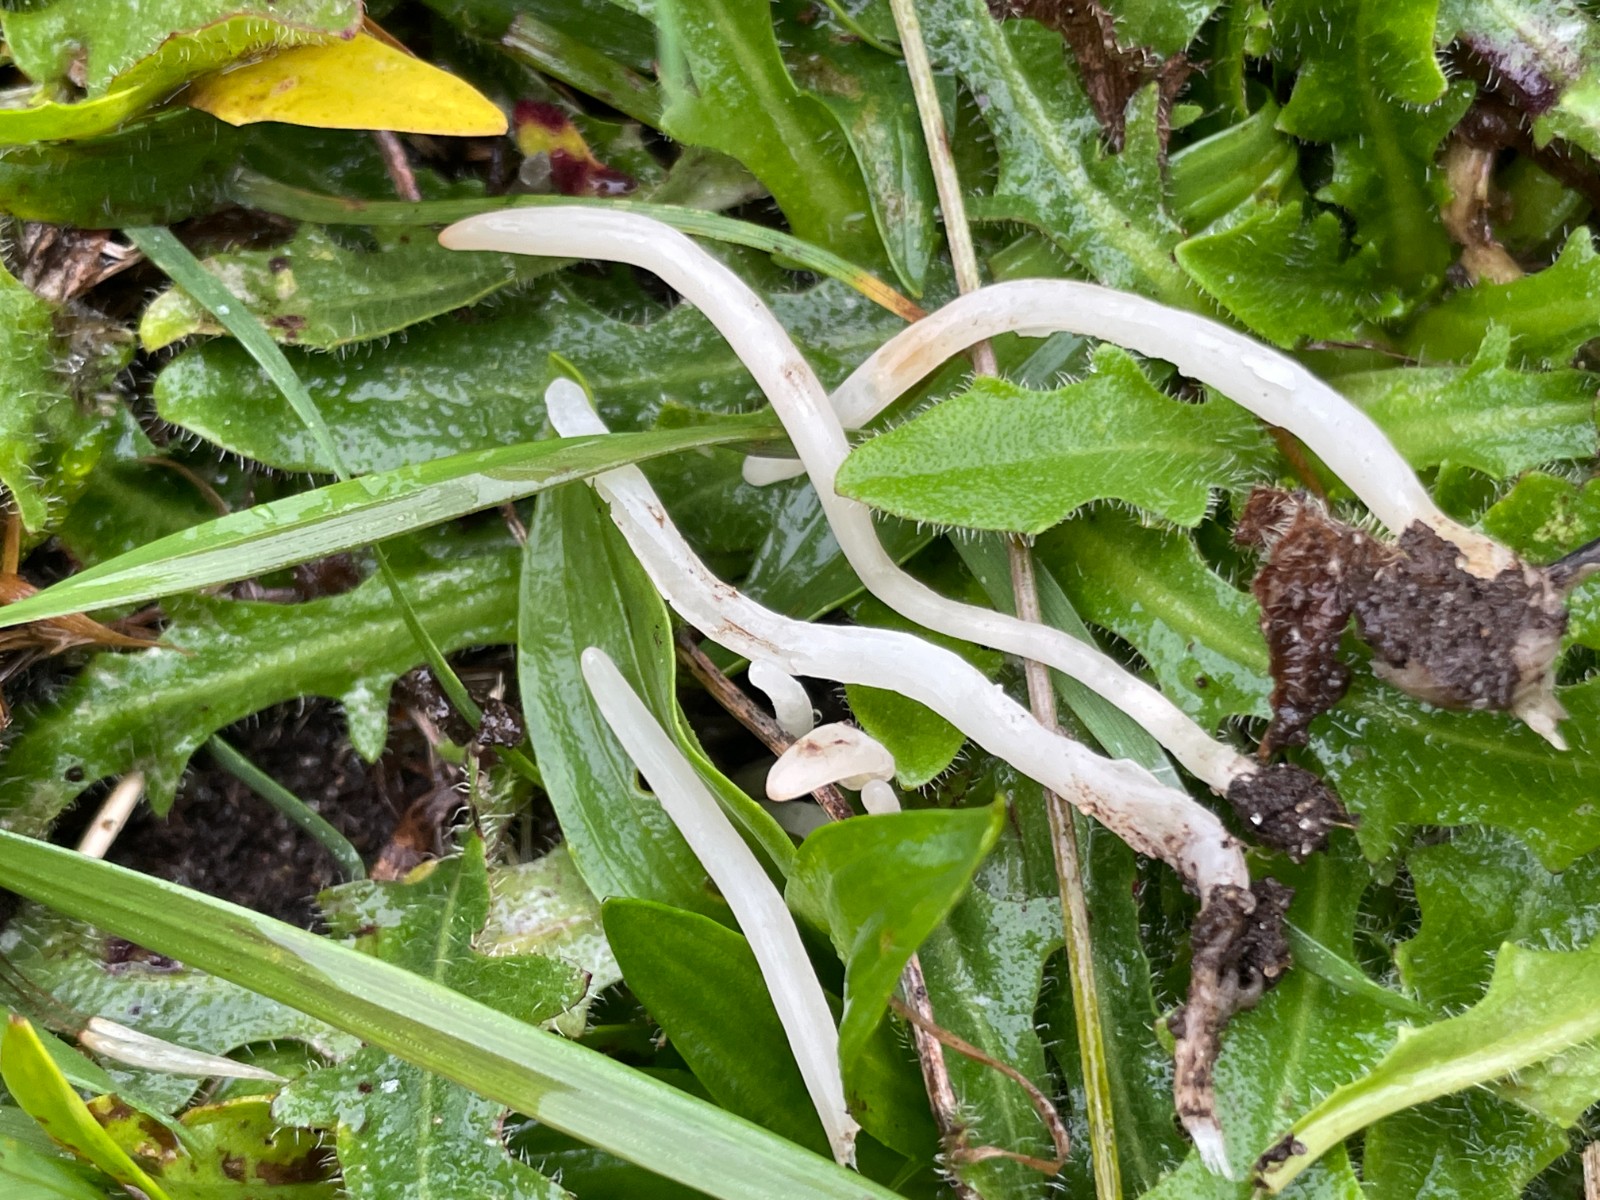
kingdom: Fungi
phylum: Basidiomycota
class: Agaricomycetes
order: Agaricales
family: Clavariaceae
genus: Clavaria
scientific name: Clavaria
